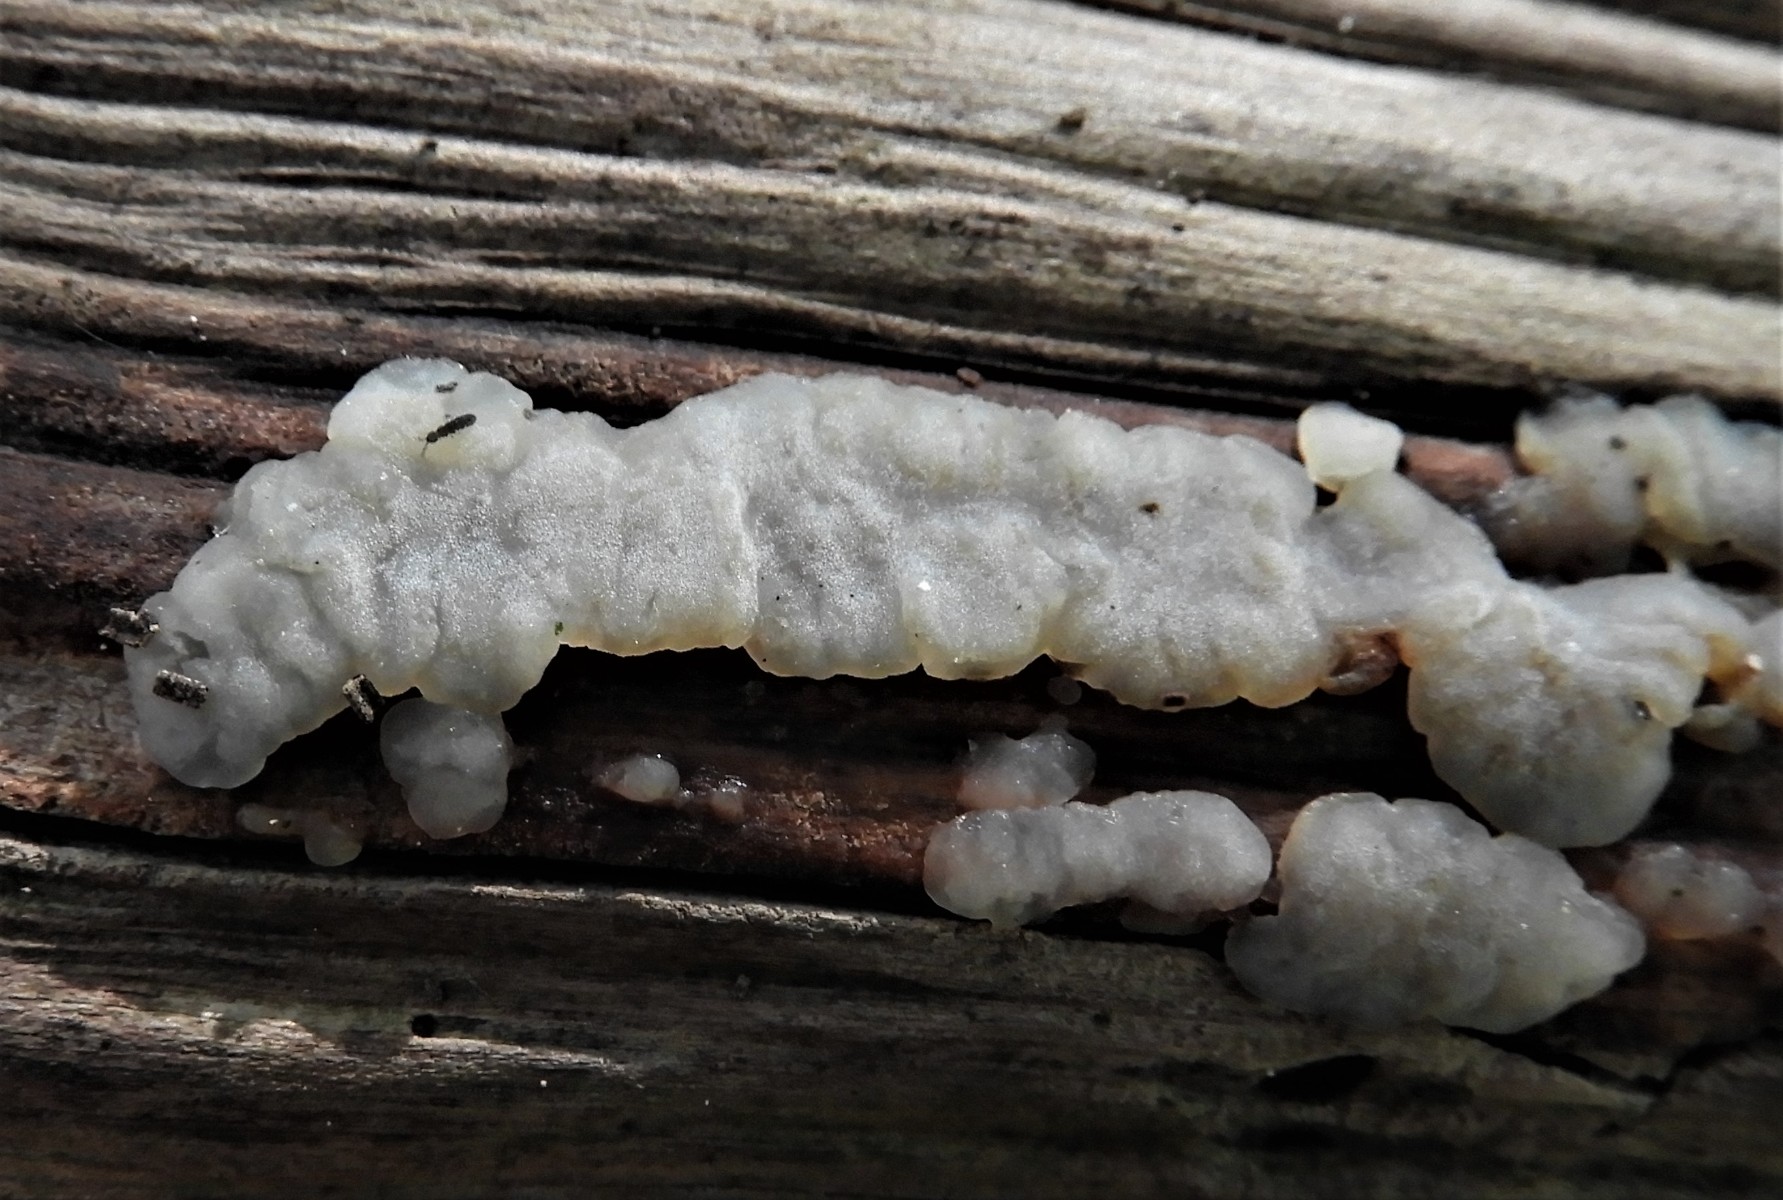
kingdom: Fungi
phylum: Basidiomycota
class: Agaricomycetes
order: Auriculariales
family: Auriculariaceae
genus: Exidia
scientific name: Exidia thuretiana
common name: hvidlig bævretop
